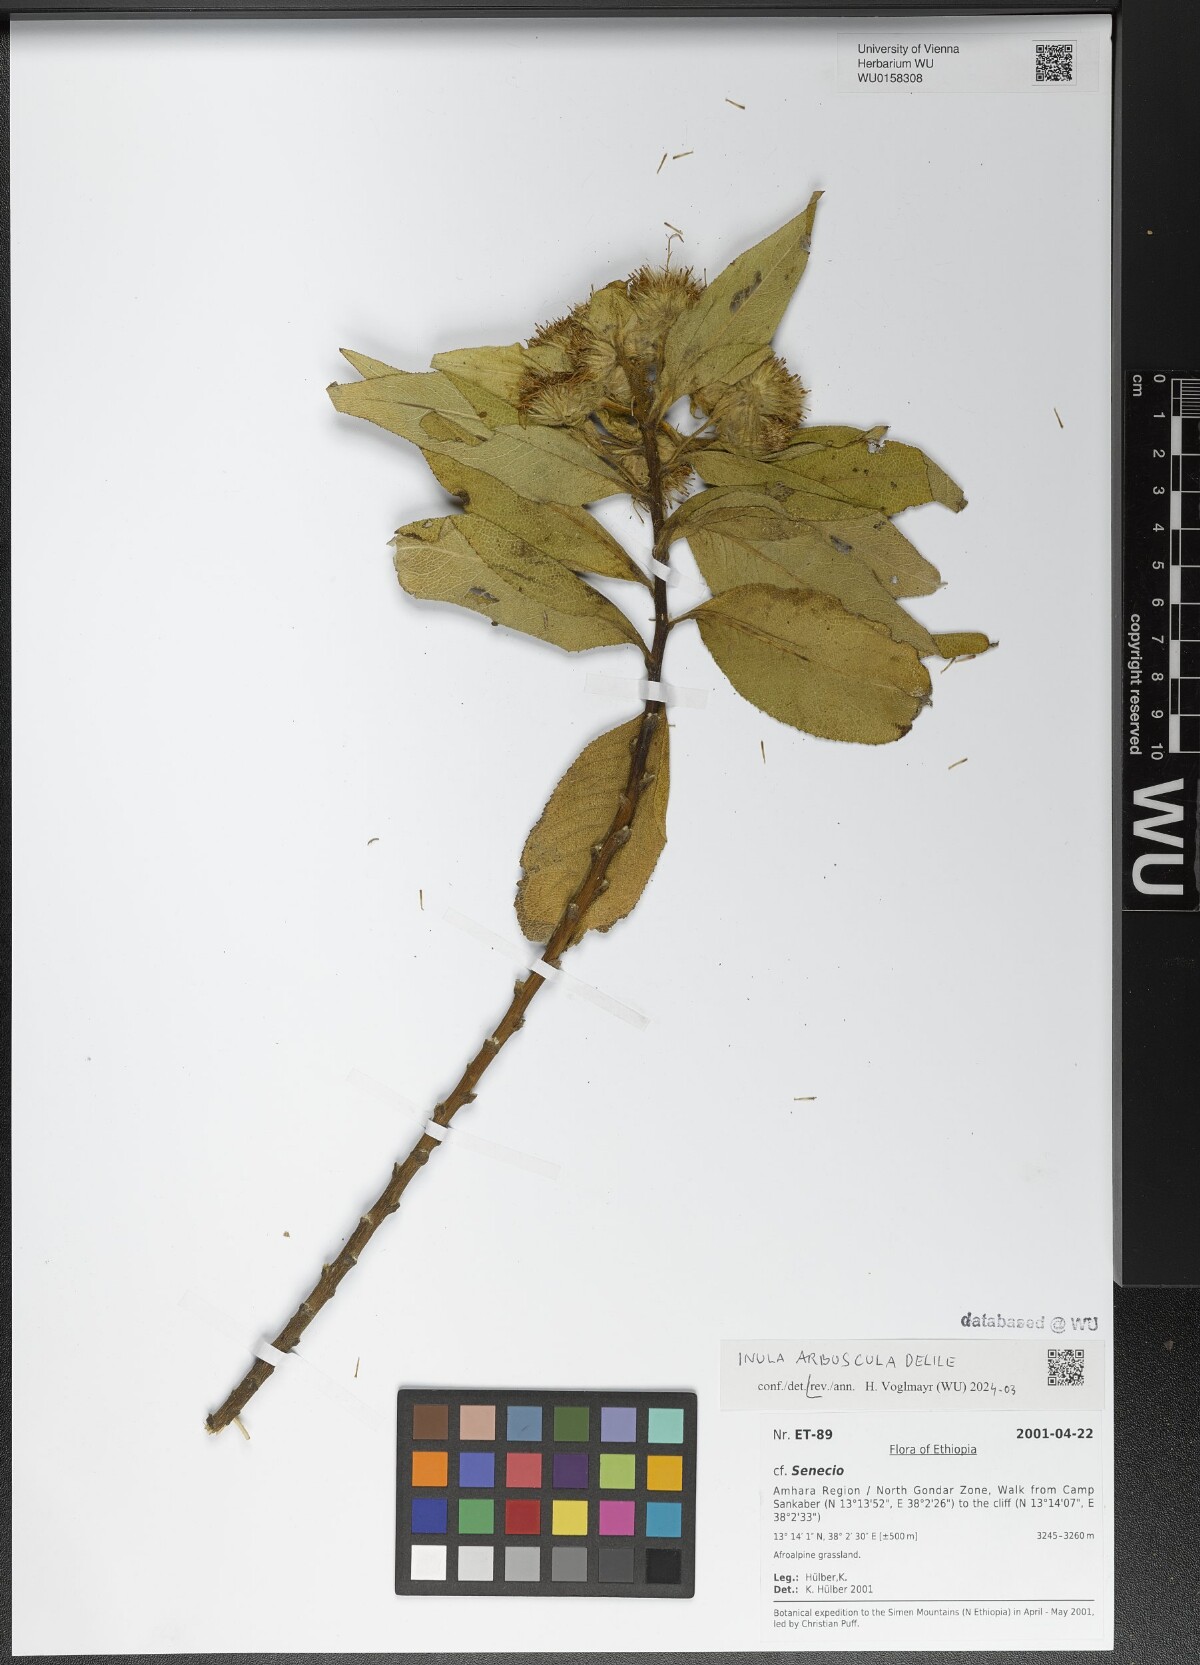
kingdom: Plantae
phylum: Tracheophyta
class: Magnoliopsida
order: Asterales
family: Asteraceae
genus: Inula
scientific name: Inula arbuscula
